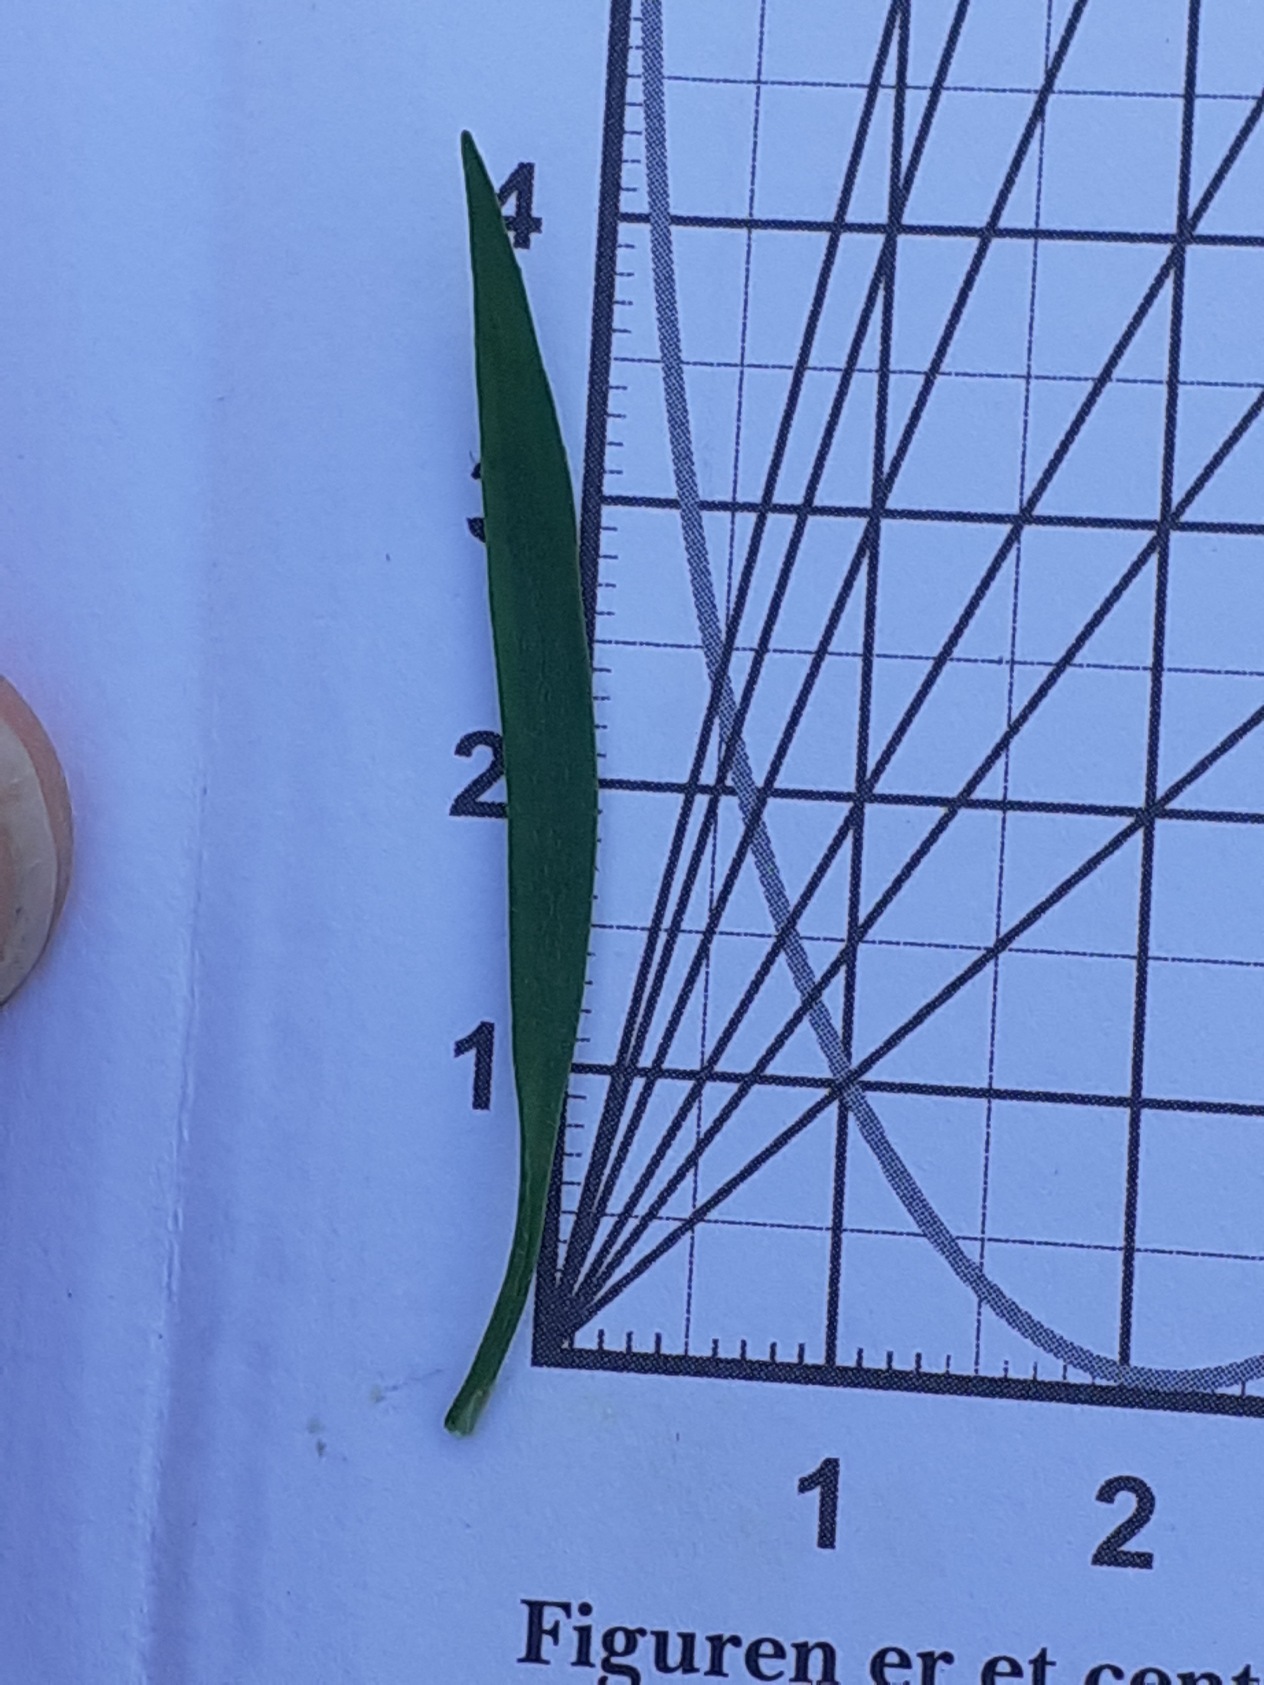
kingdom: Plantae
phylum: Tracheophyta
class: Magnoliopsida
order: Ranunculales
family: Ranunculaceae
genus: Ranunculus
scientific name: Ranunculus flammula
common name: Kær-ranunkel
